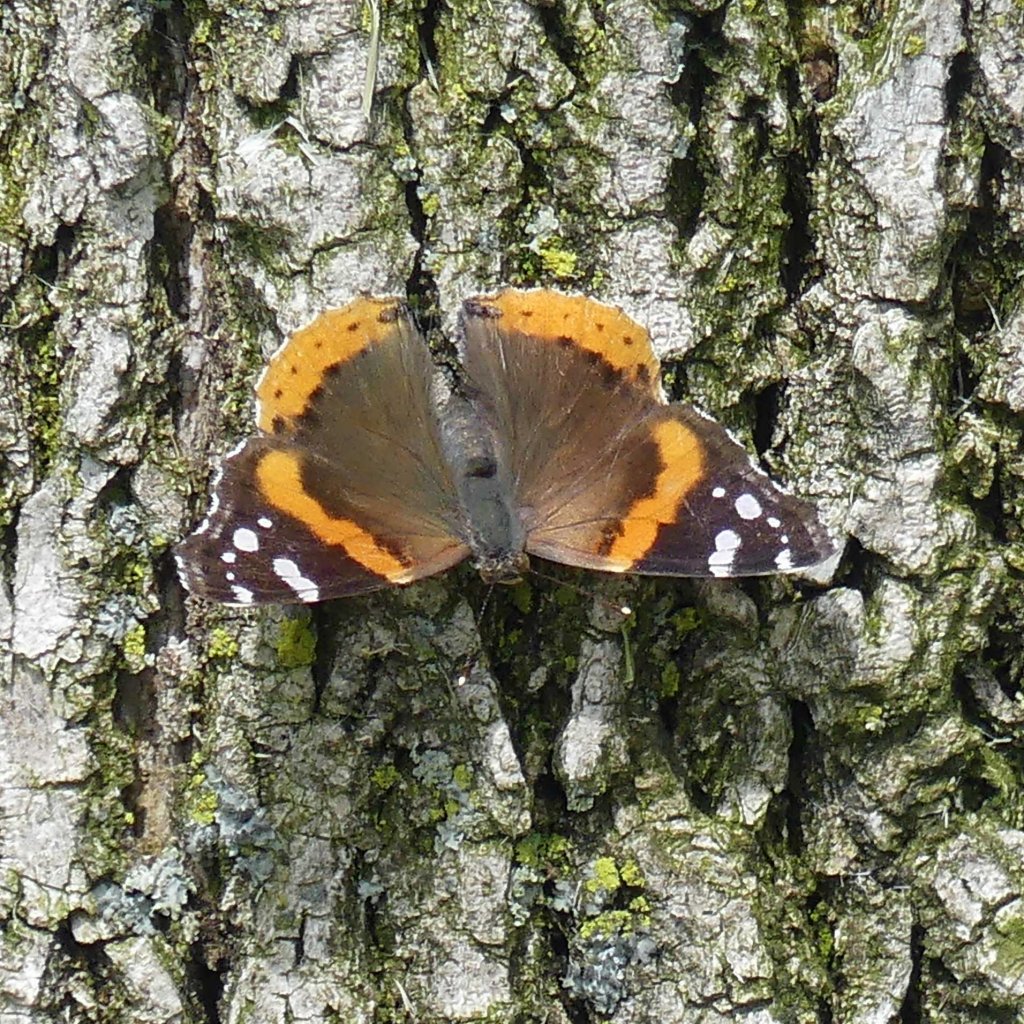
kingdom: Animalia
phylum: Arthropoda
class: Insecta
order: Lepidoptera
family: Nymphalidae
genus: Vanessa
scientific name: Vanessa atalanta
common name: Red Admiral
